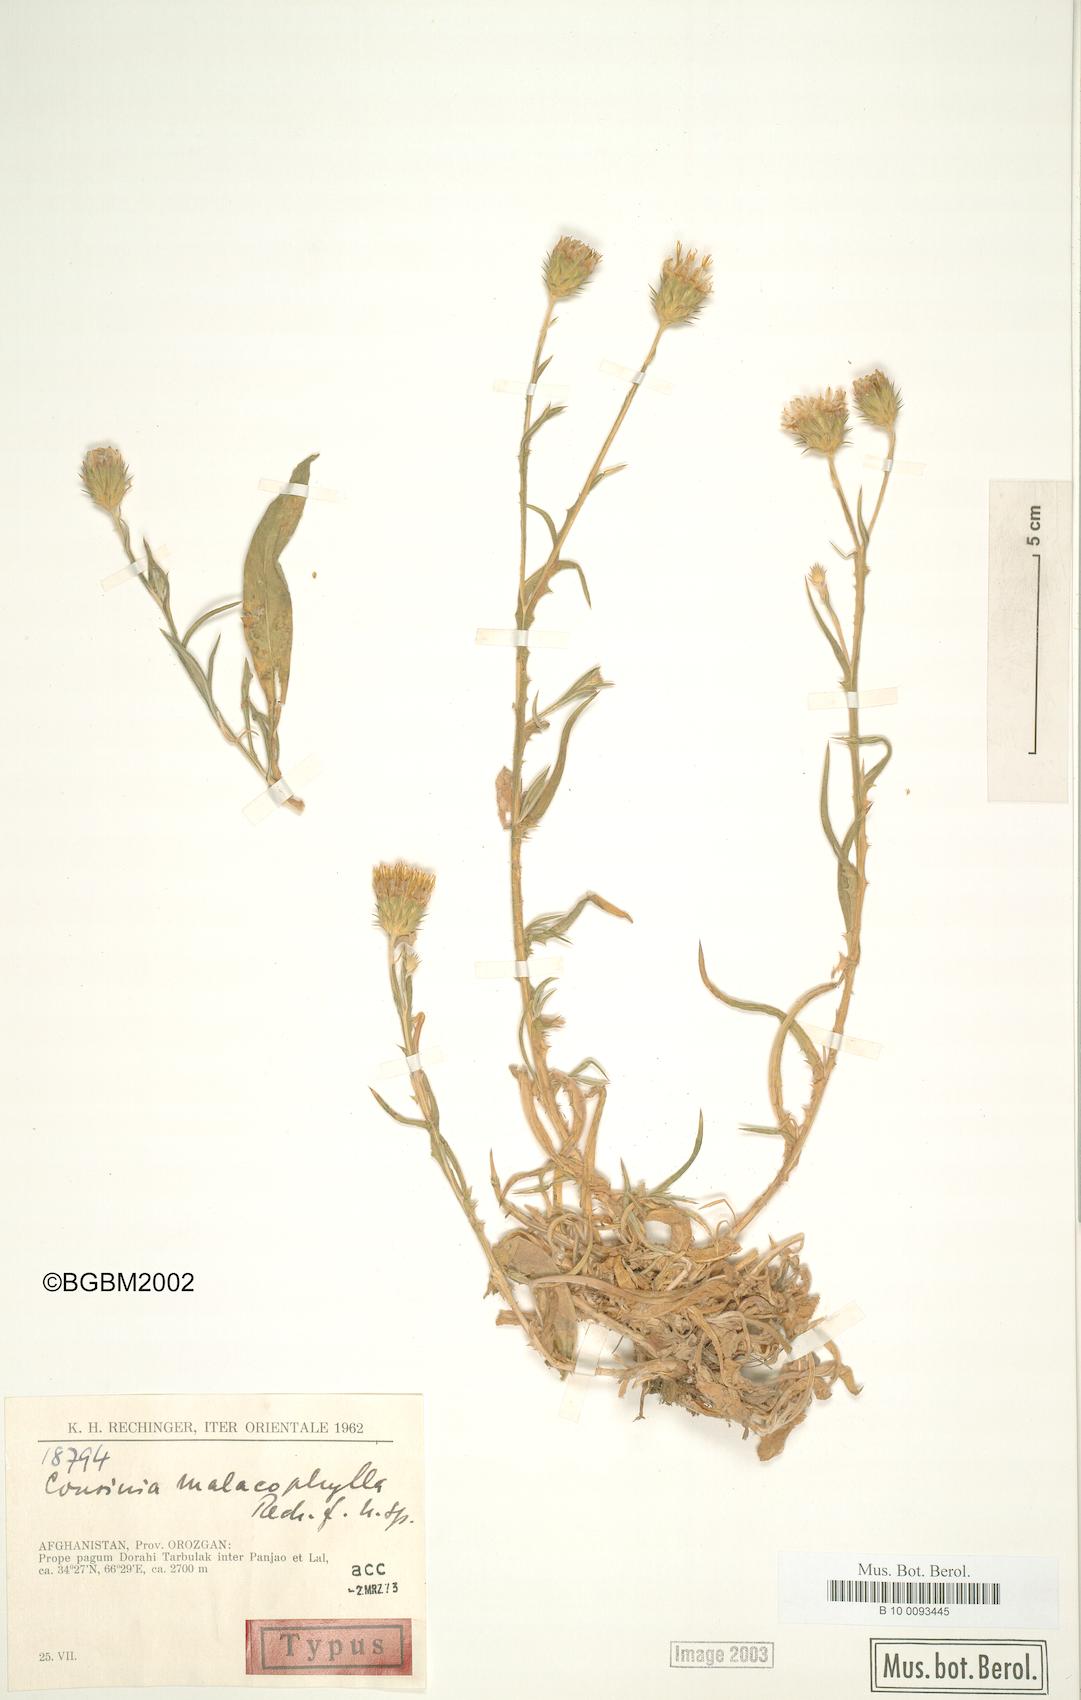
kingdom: Plantae
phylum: Tracheophyta
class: Magnoliopsida
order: Asterales
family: Asteraceae
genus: Cousinia
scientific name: Cousinia malacophylla
